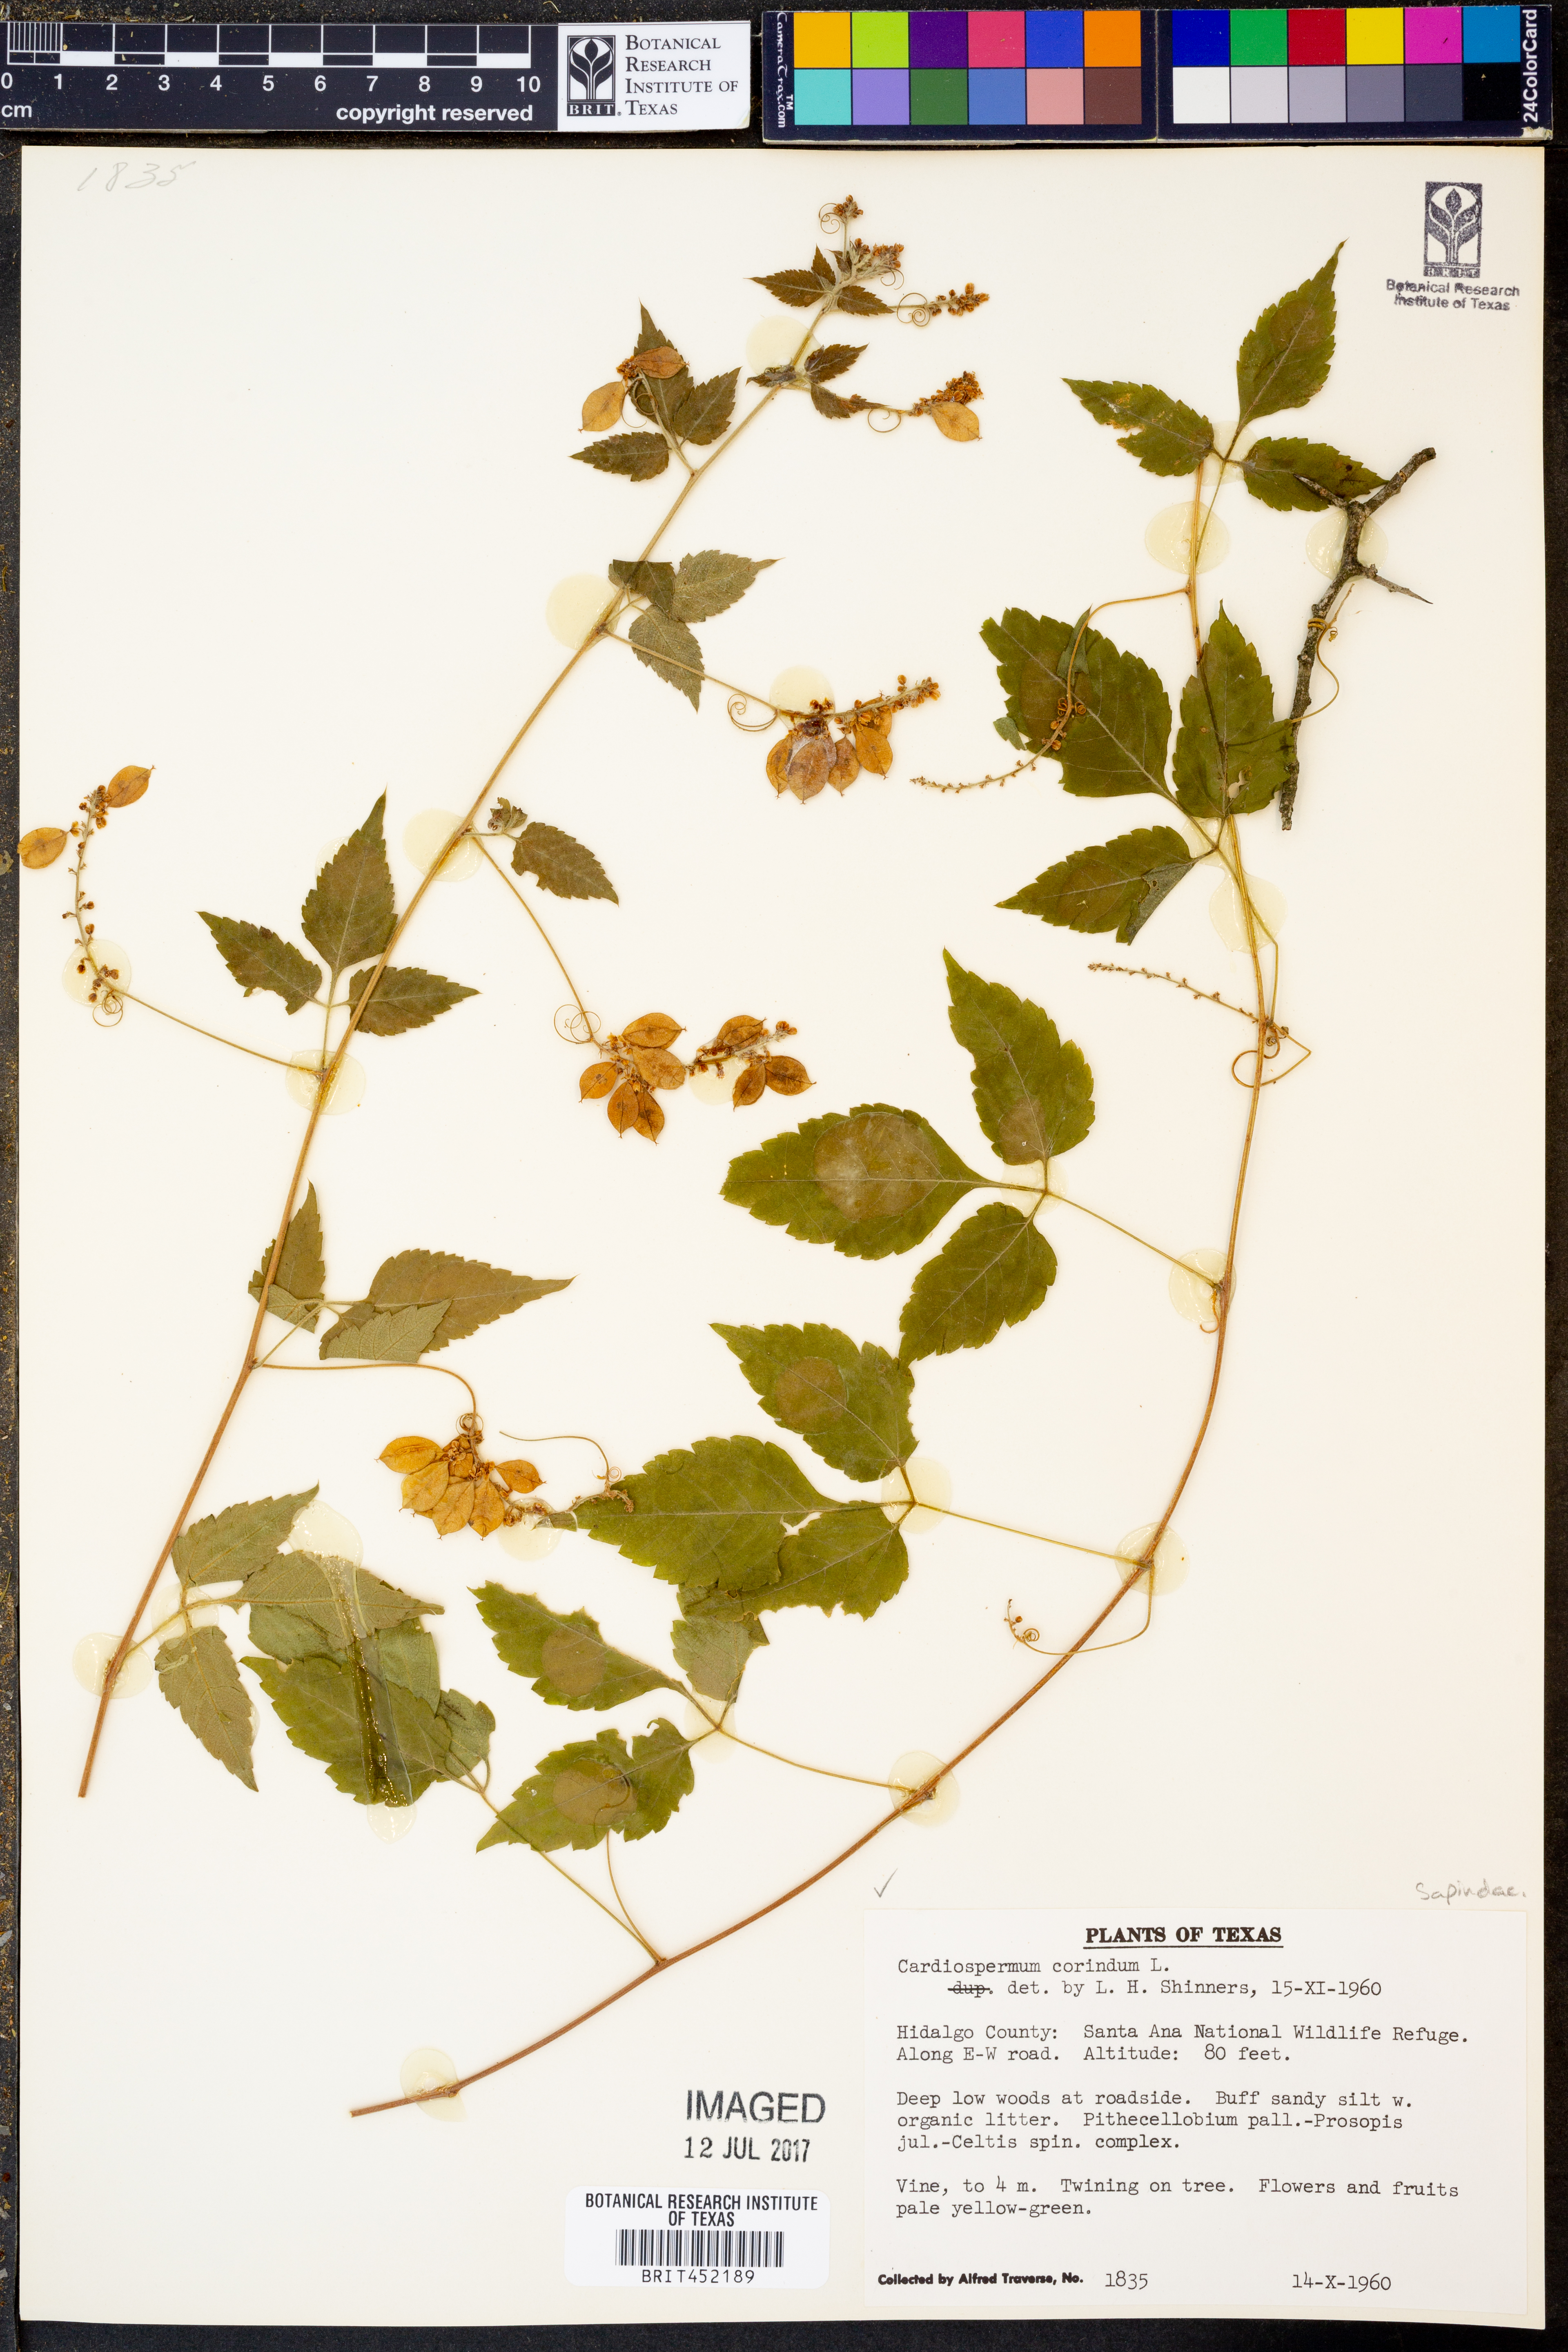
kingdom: Plantae
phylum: Tracheophyta
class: Magnoliopsida
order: Sapindales
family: Sapindaceae
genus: Cardiospermum
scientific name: Cardiospermum corindum
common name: Faux persil
